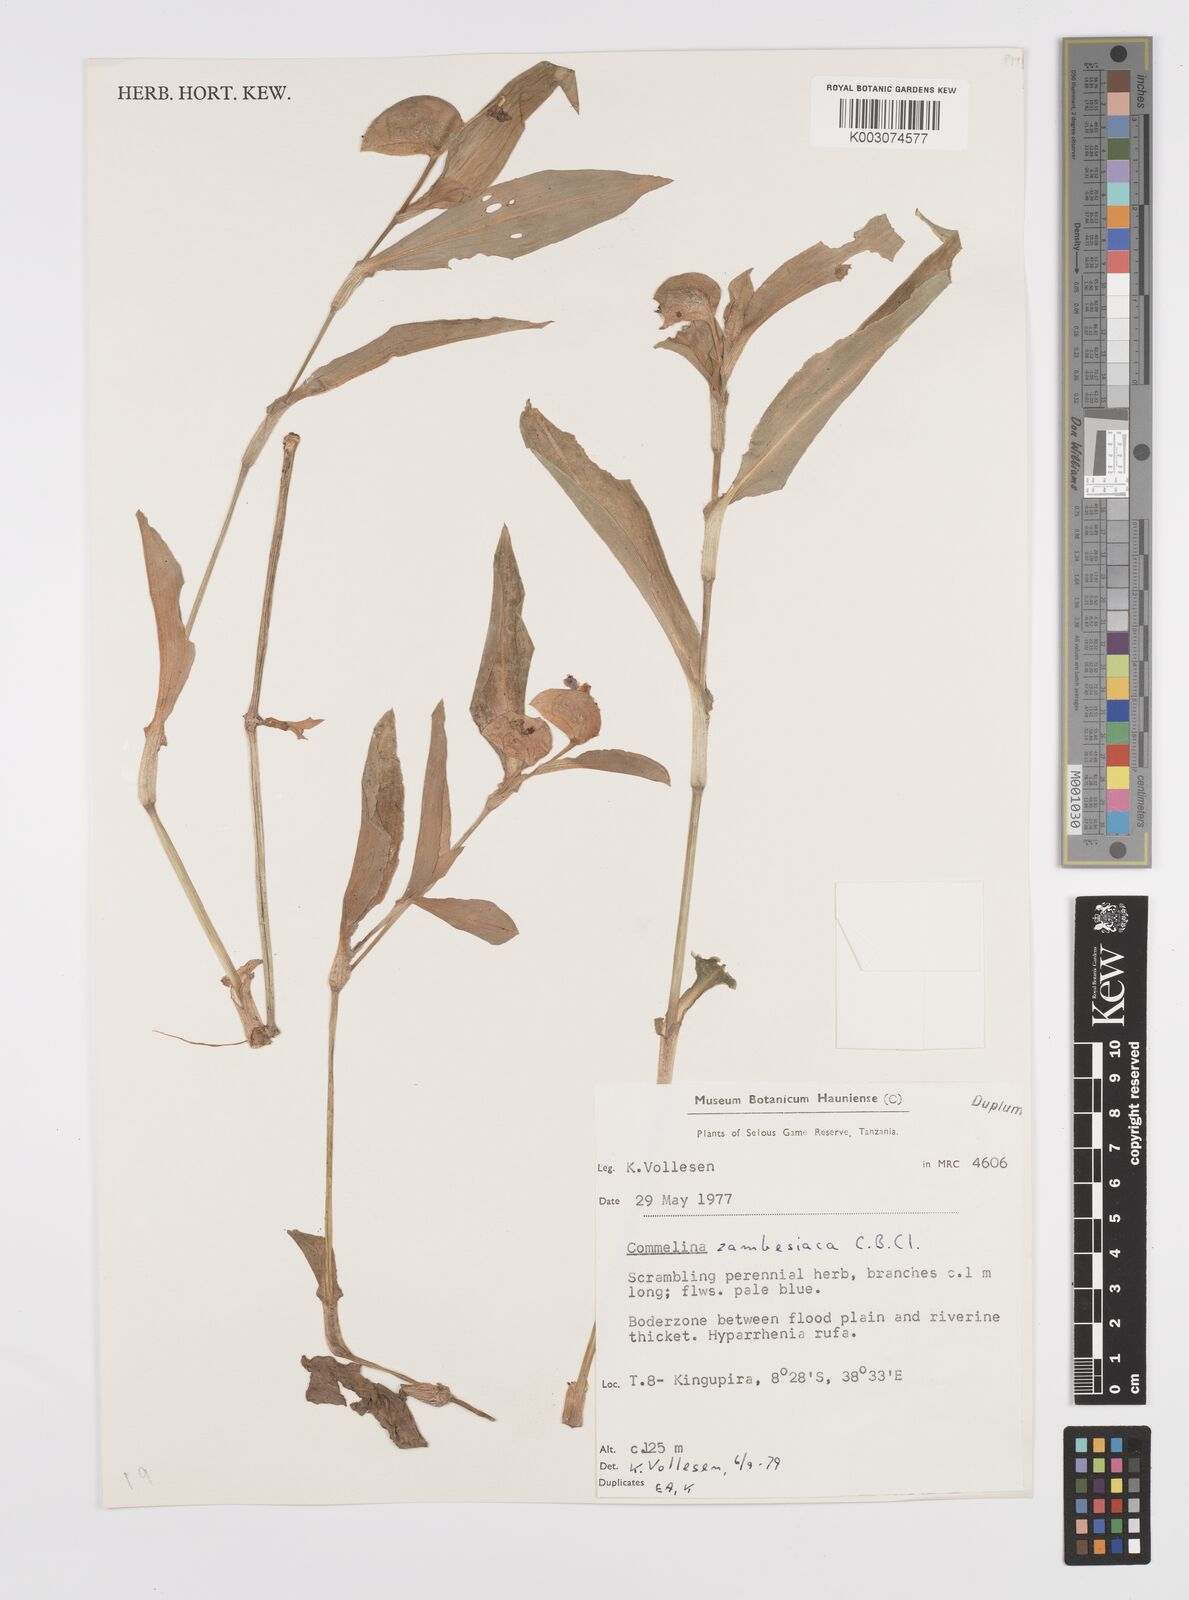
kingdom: Plantae
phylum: Tracheophyta
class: Liliopsida
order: Commelinales
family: Commelinaceae
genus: Commelina
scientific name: Commelina zambesica
